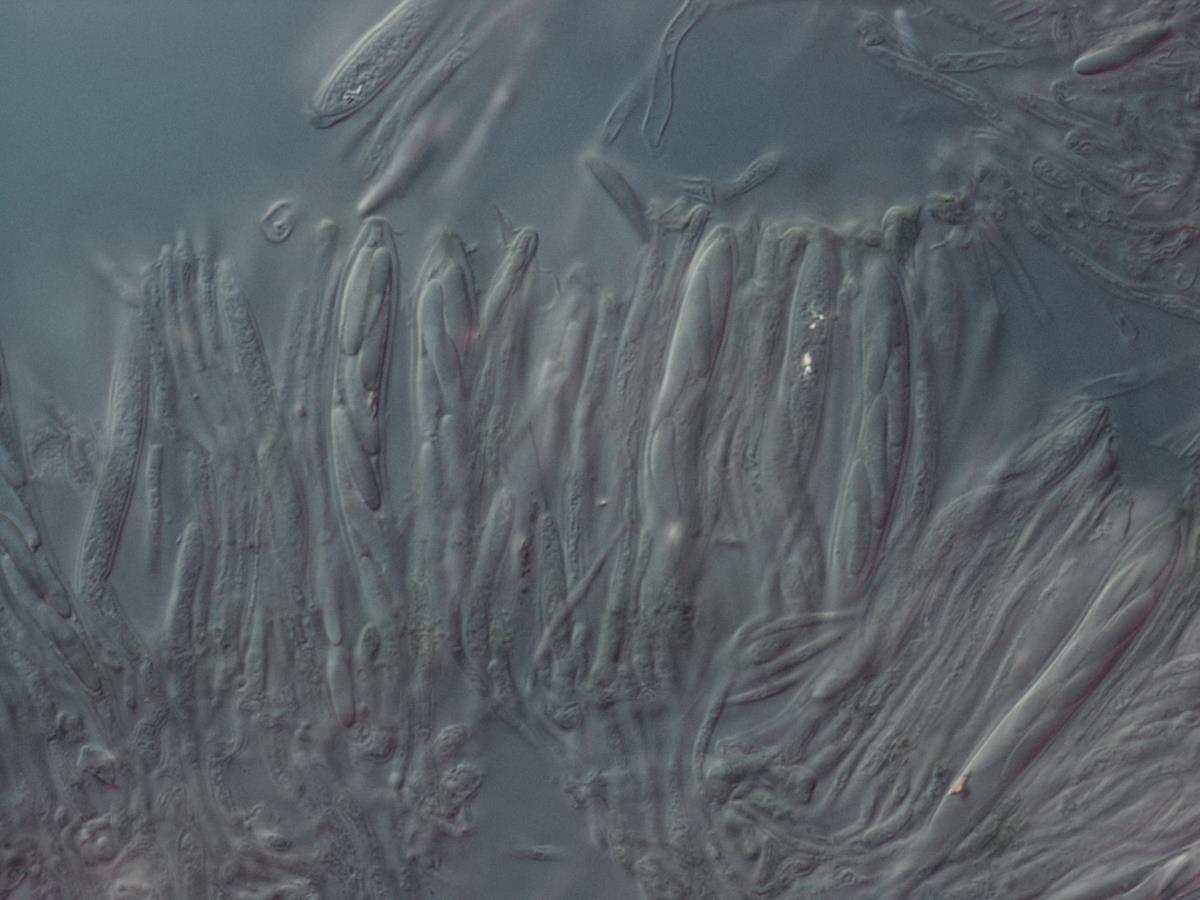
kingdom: Fungi
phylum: Ascomycota
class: Leotiomycetes
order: Helotiales
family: Chlorociboriaceae
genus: Chlorociboria
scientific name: Chlorociboria
